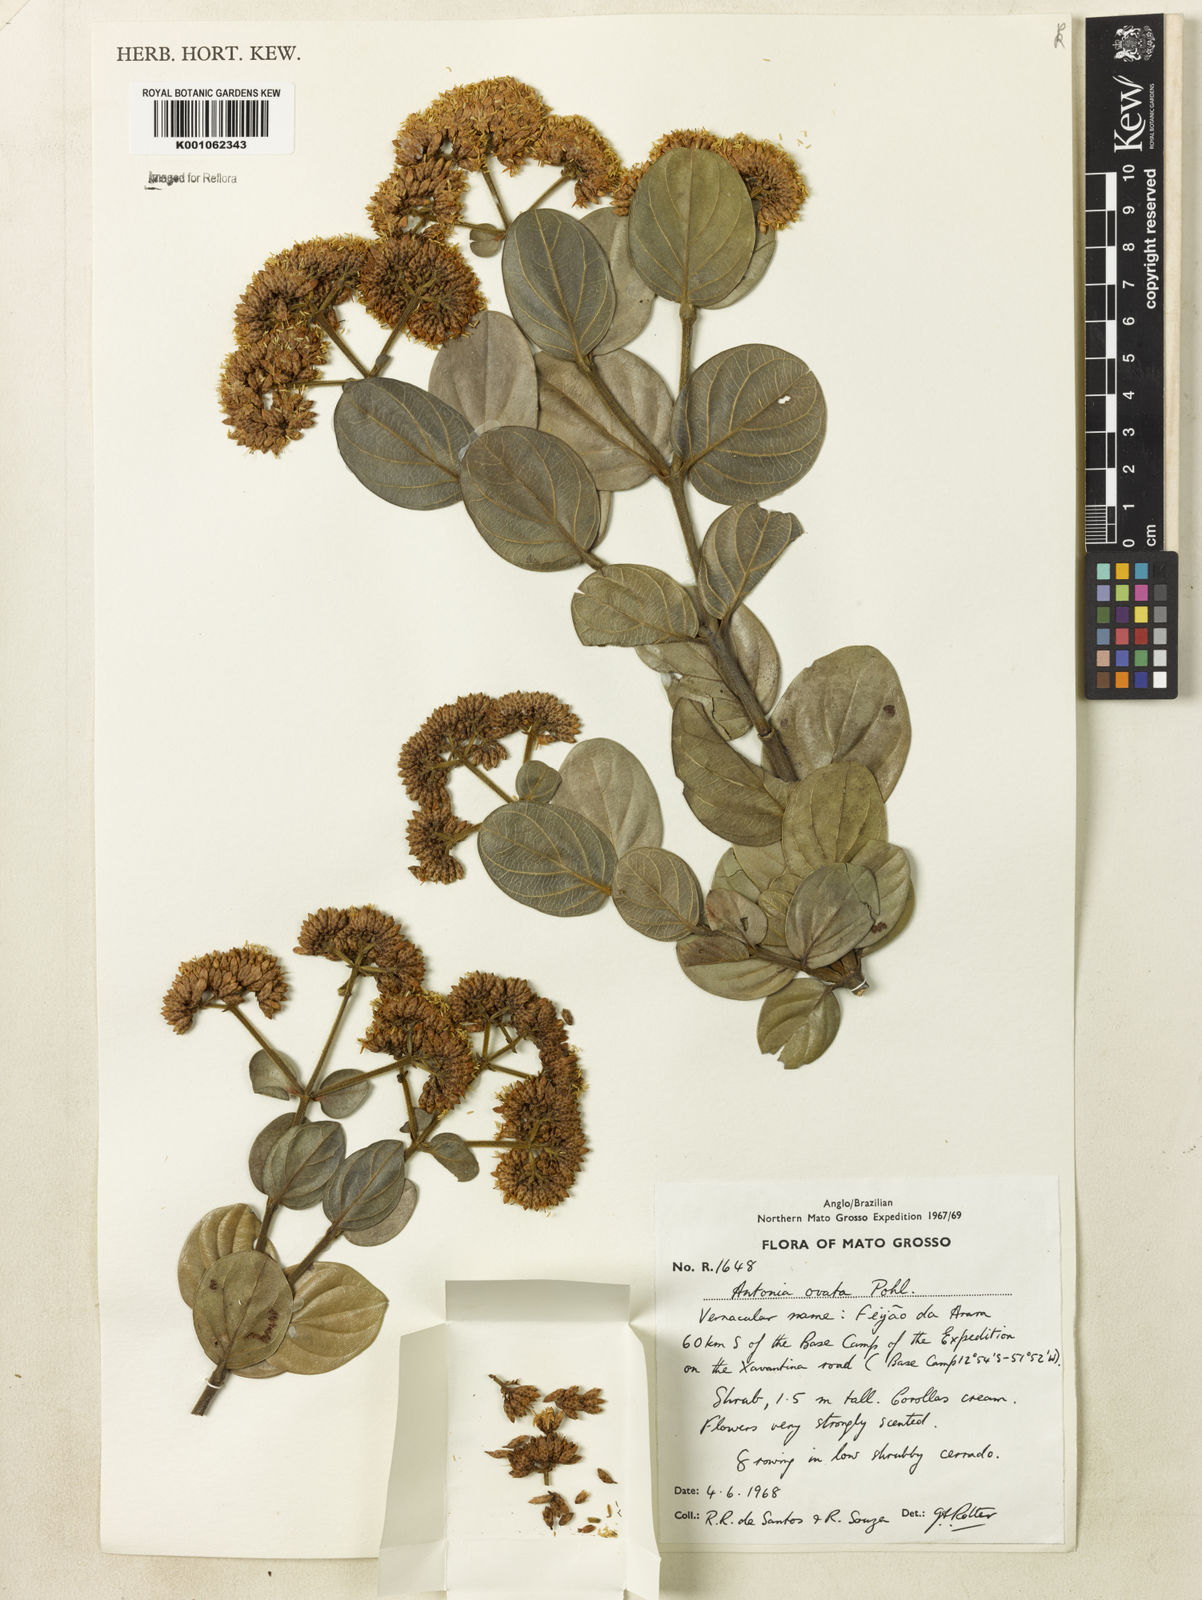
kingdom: Plantae
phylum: Tracheophyta
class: Magnoliopsida
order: Gentianales
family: Loganiaceae
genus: Antonia
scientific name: Antonia ovata
